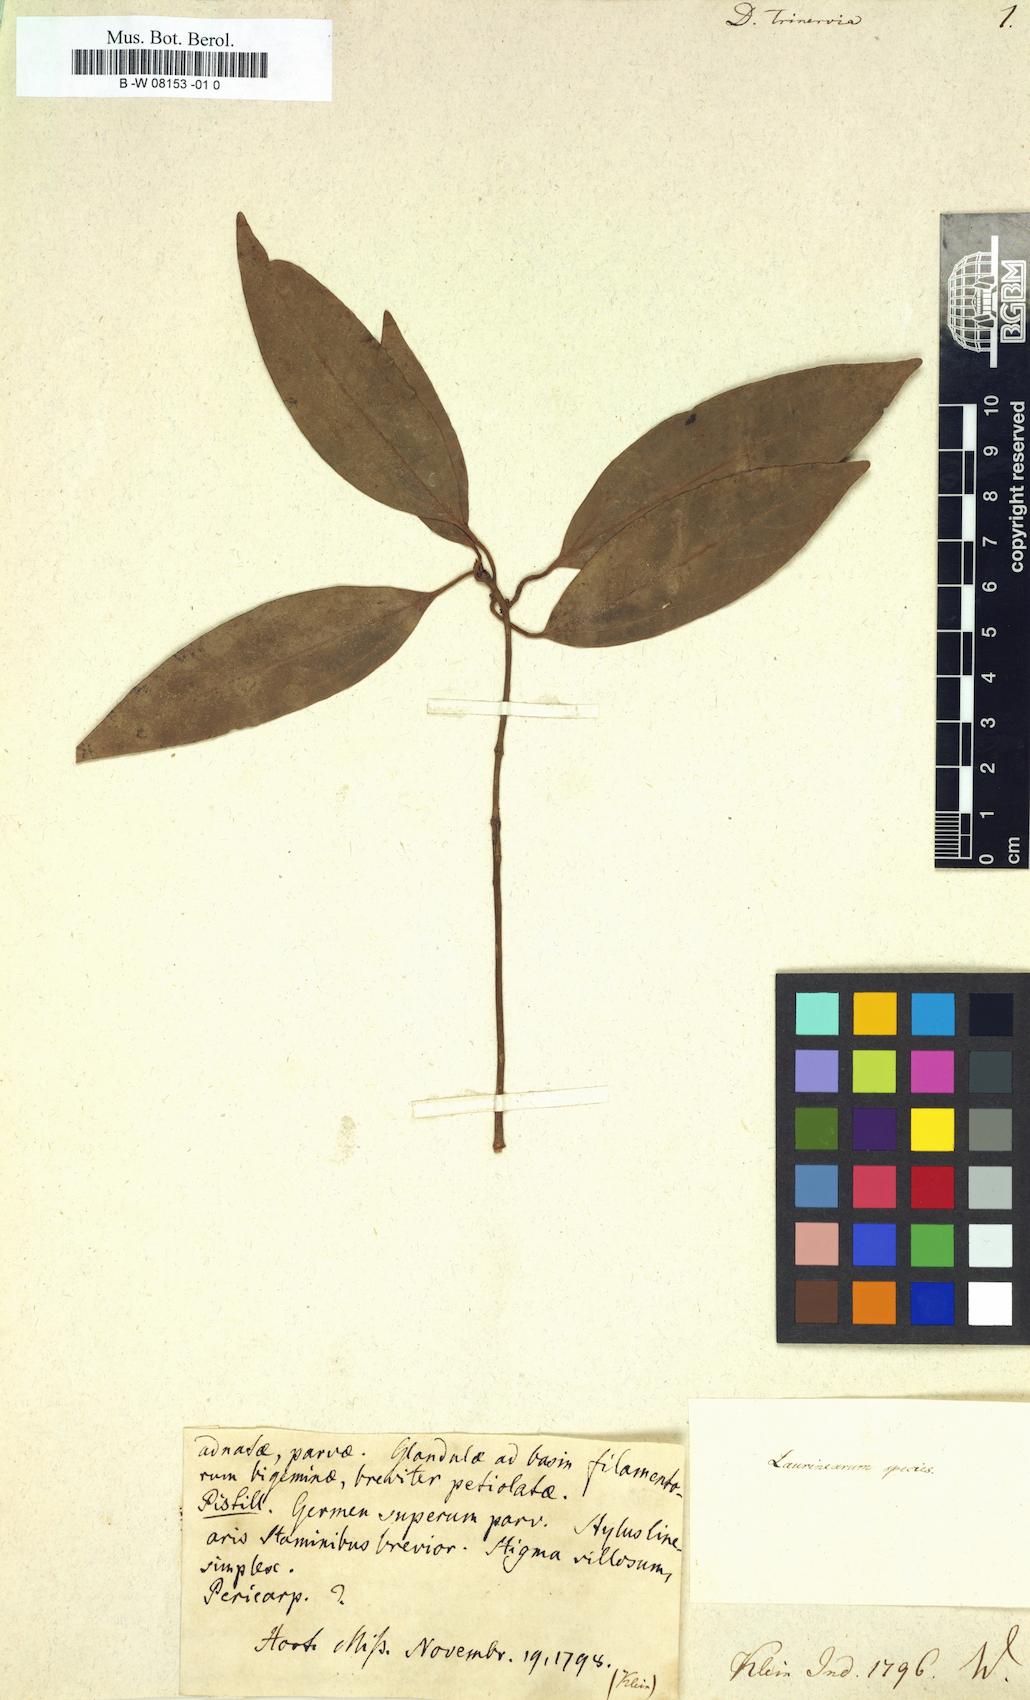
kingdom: Plantae
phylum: Tracheophyta
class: Magnoliopsida
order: Malvales
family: Thymelaeaceae
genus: Dais
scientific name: Dais
